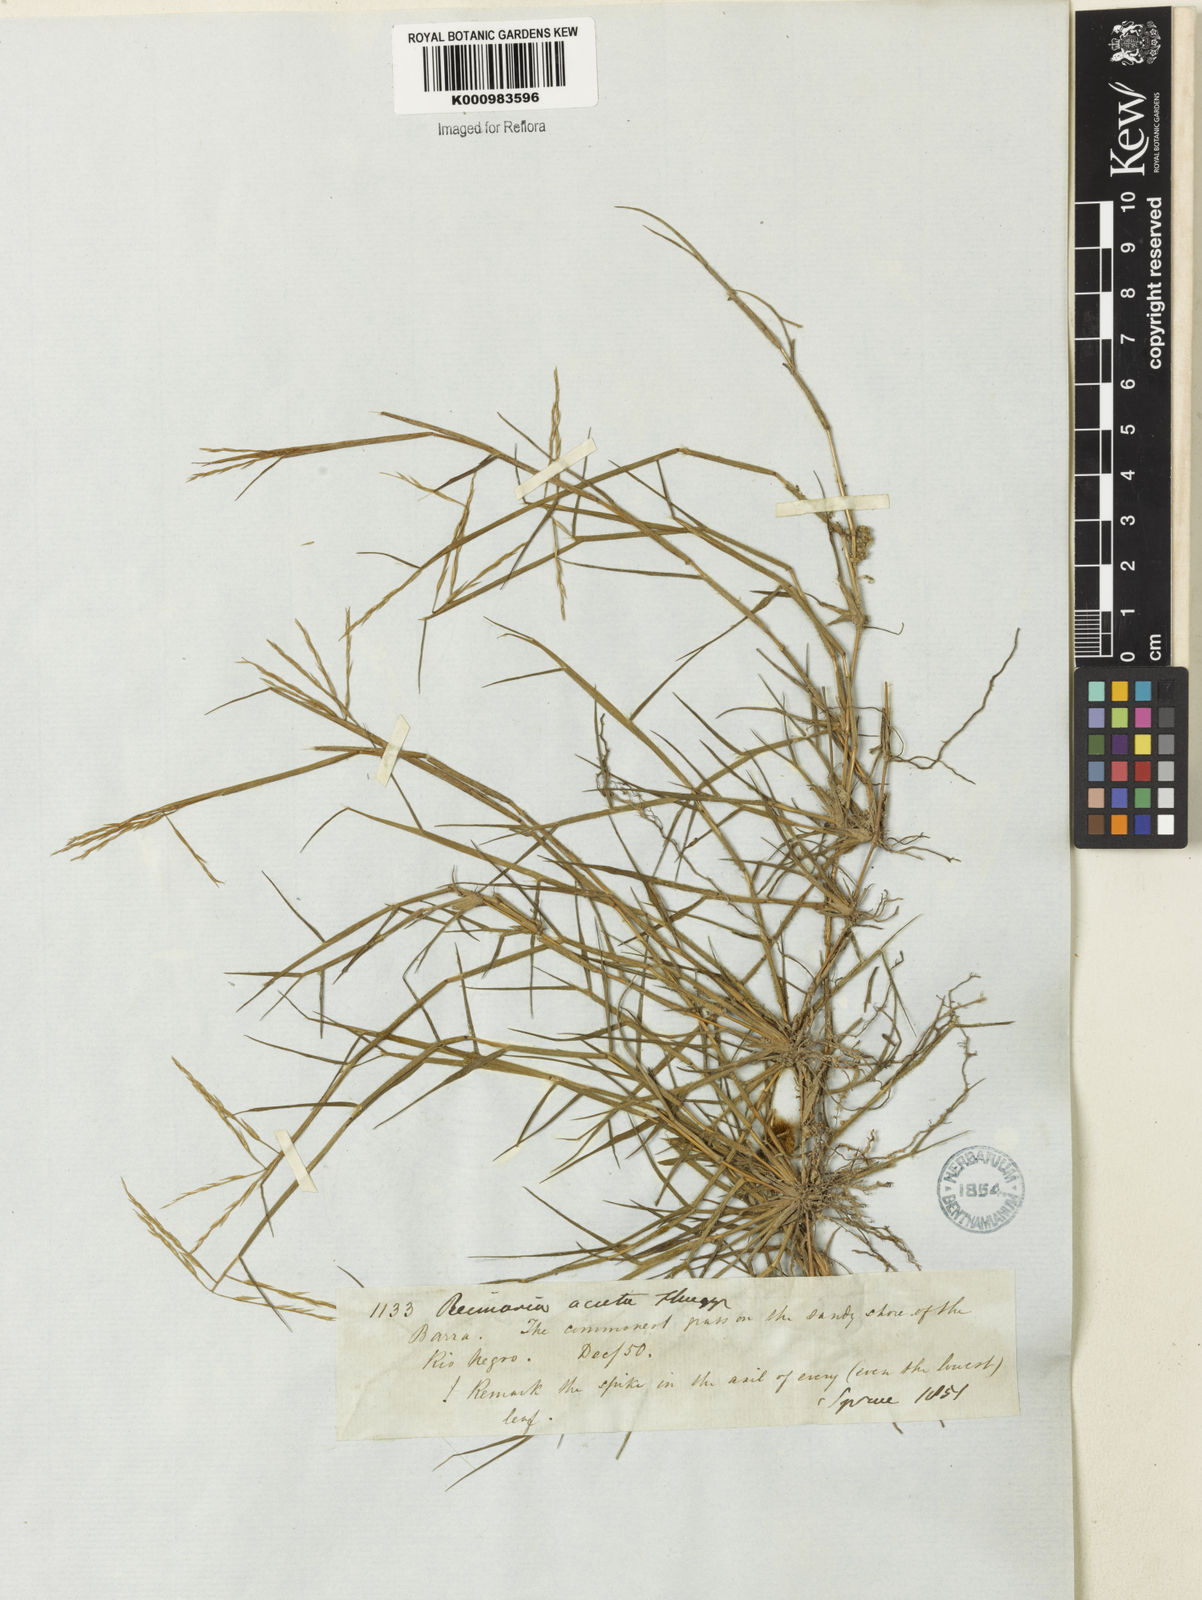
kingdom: Plantae
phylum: Tracheophyta
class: Liliopsida
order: Poales
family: Poaceae
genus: Paspalum
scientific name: Paspalum
